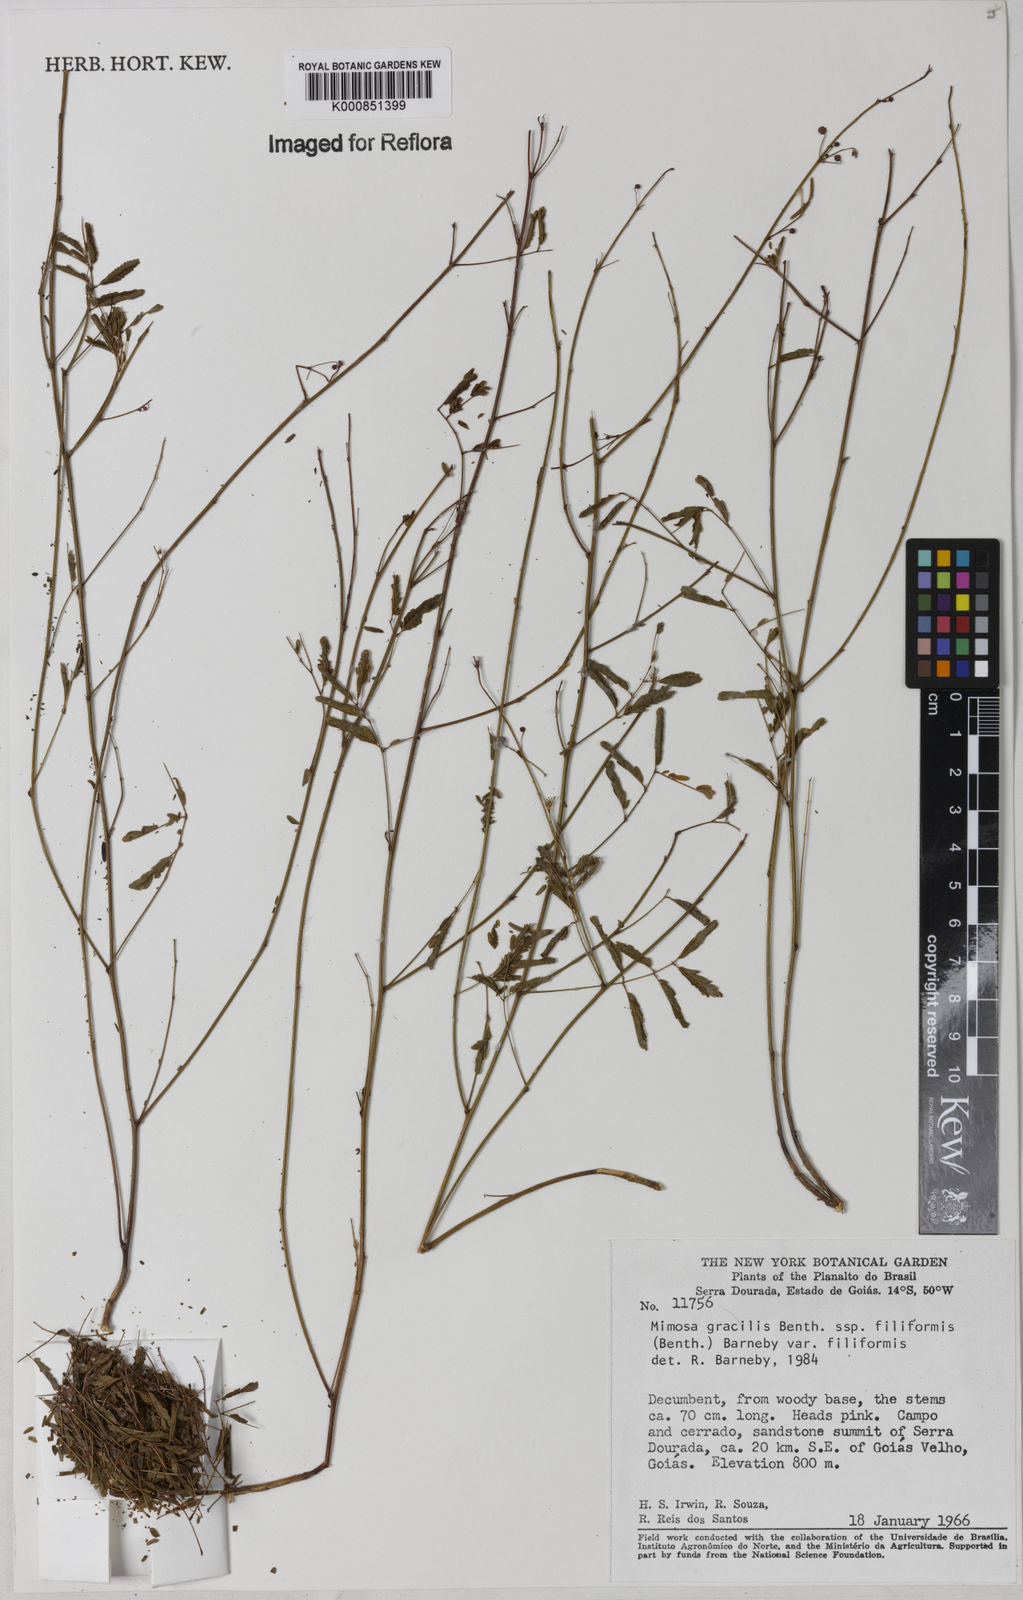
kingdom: Plantae
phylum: Tracheophyta
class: Magnoliopsida
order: Fabales
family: Fabaceae
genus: Mimosa
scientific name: Mimosa gracilis
